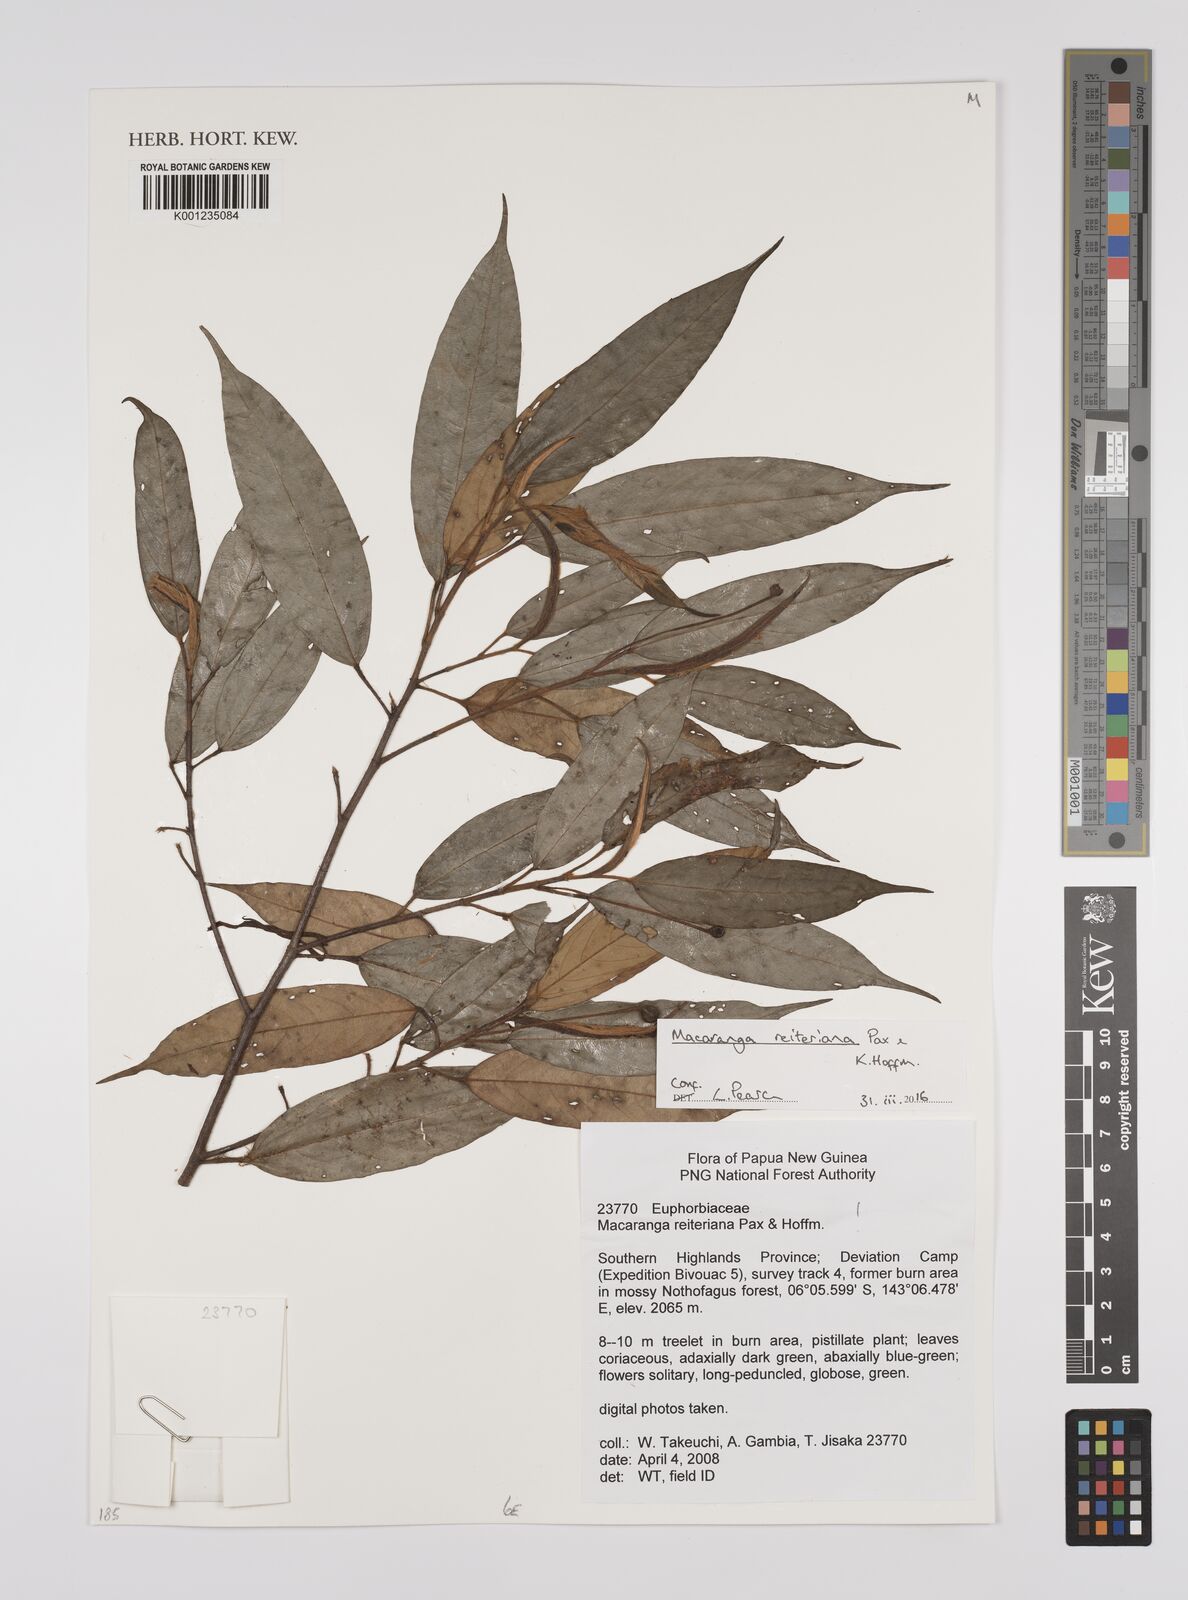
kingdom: Plantae
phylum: Tracheophyta
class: Magnoliopsida
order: Malpighiales
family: Euphorbiaceae
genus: Macaranga
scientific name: Macaranga reiteriana
